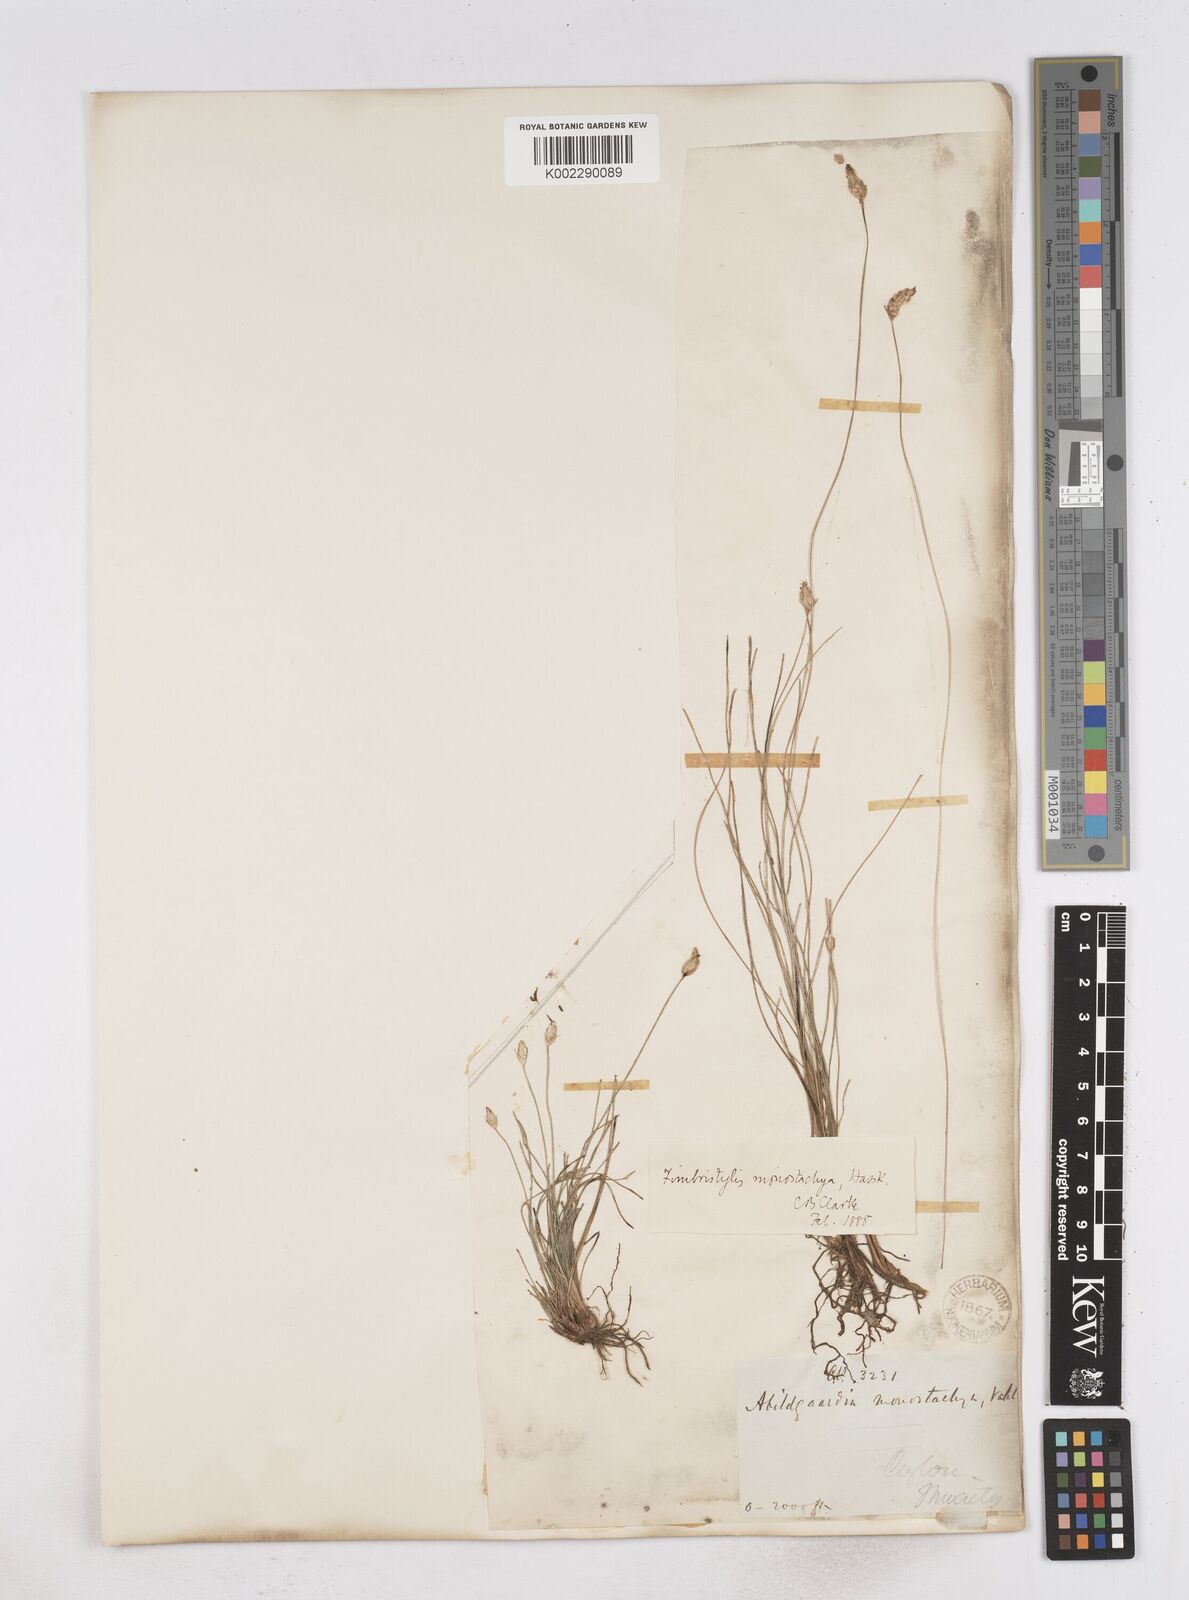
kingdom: Plantae
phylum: Tracheophyta
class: Liliopsida
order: Poales
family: Cyperaceae
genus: Abildgaardia
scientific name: Abildgaardia ovata
